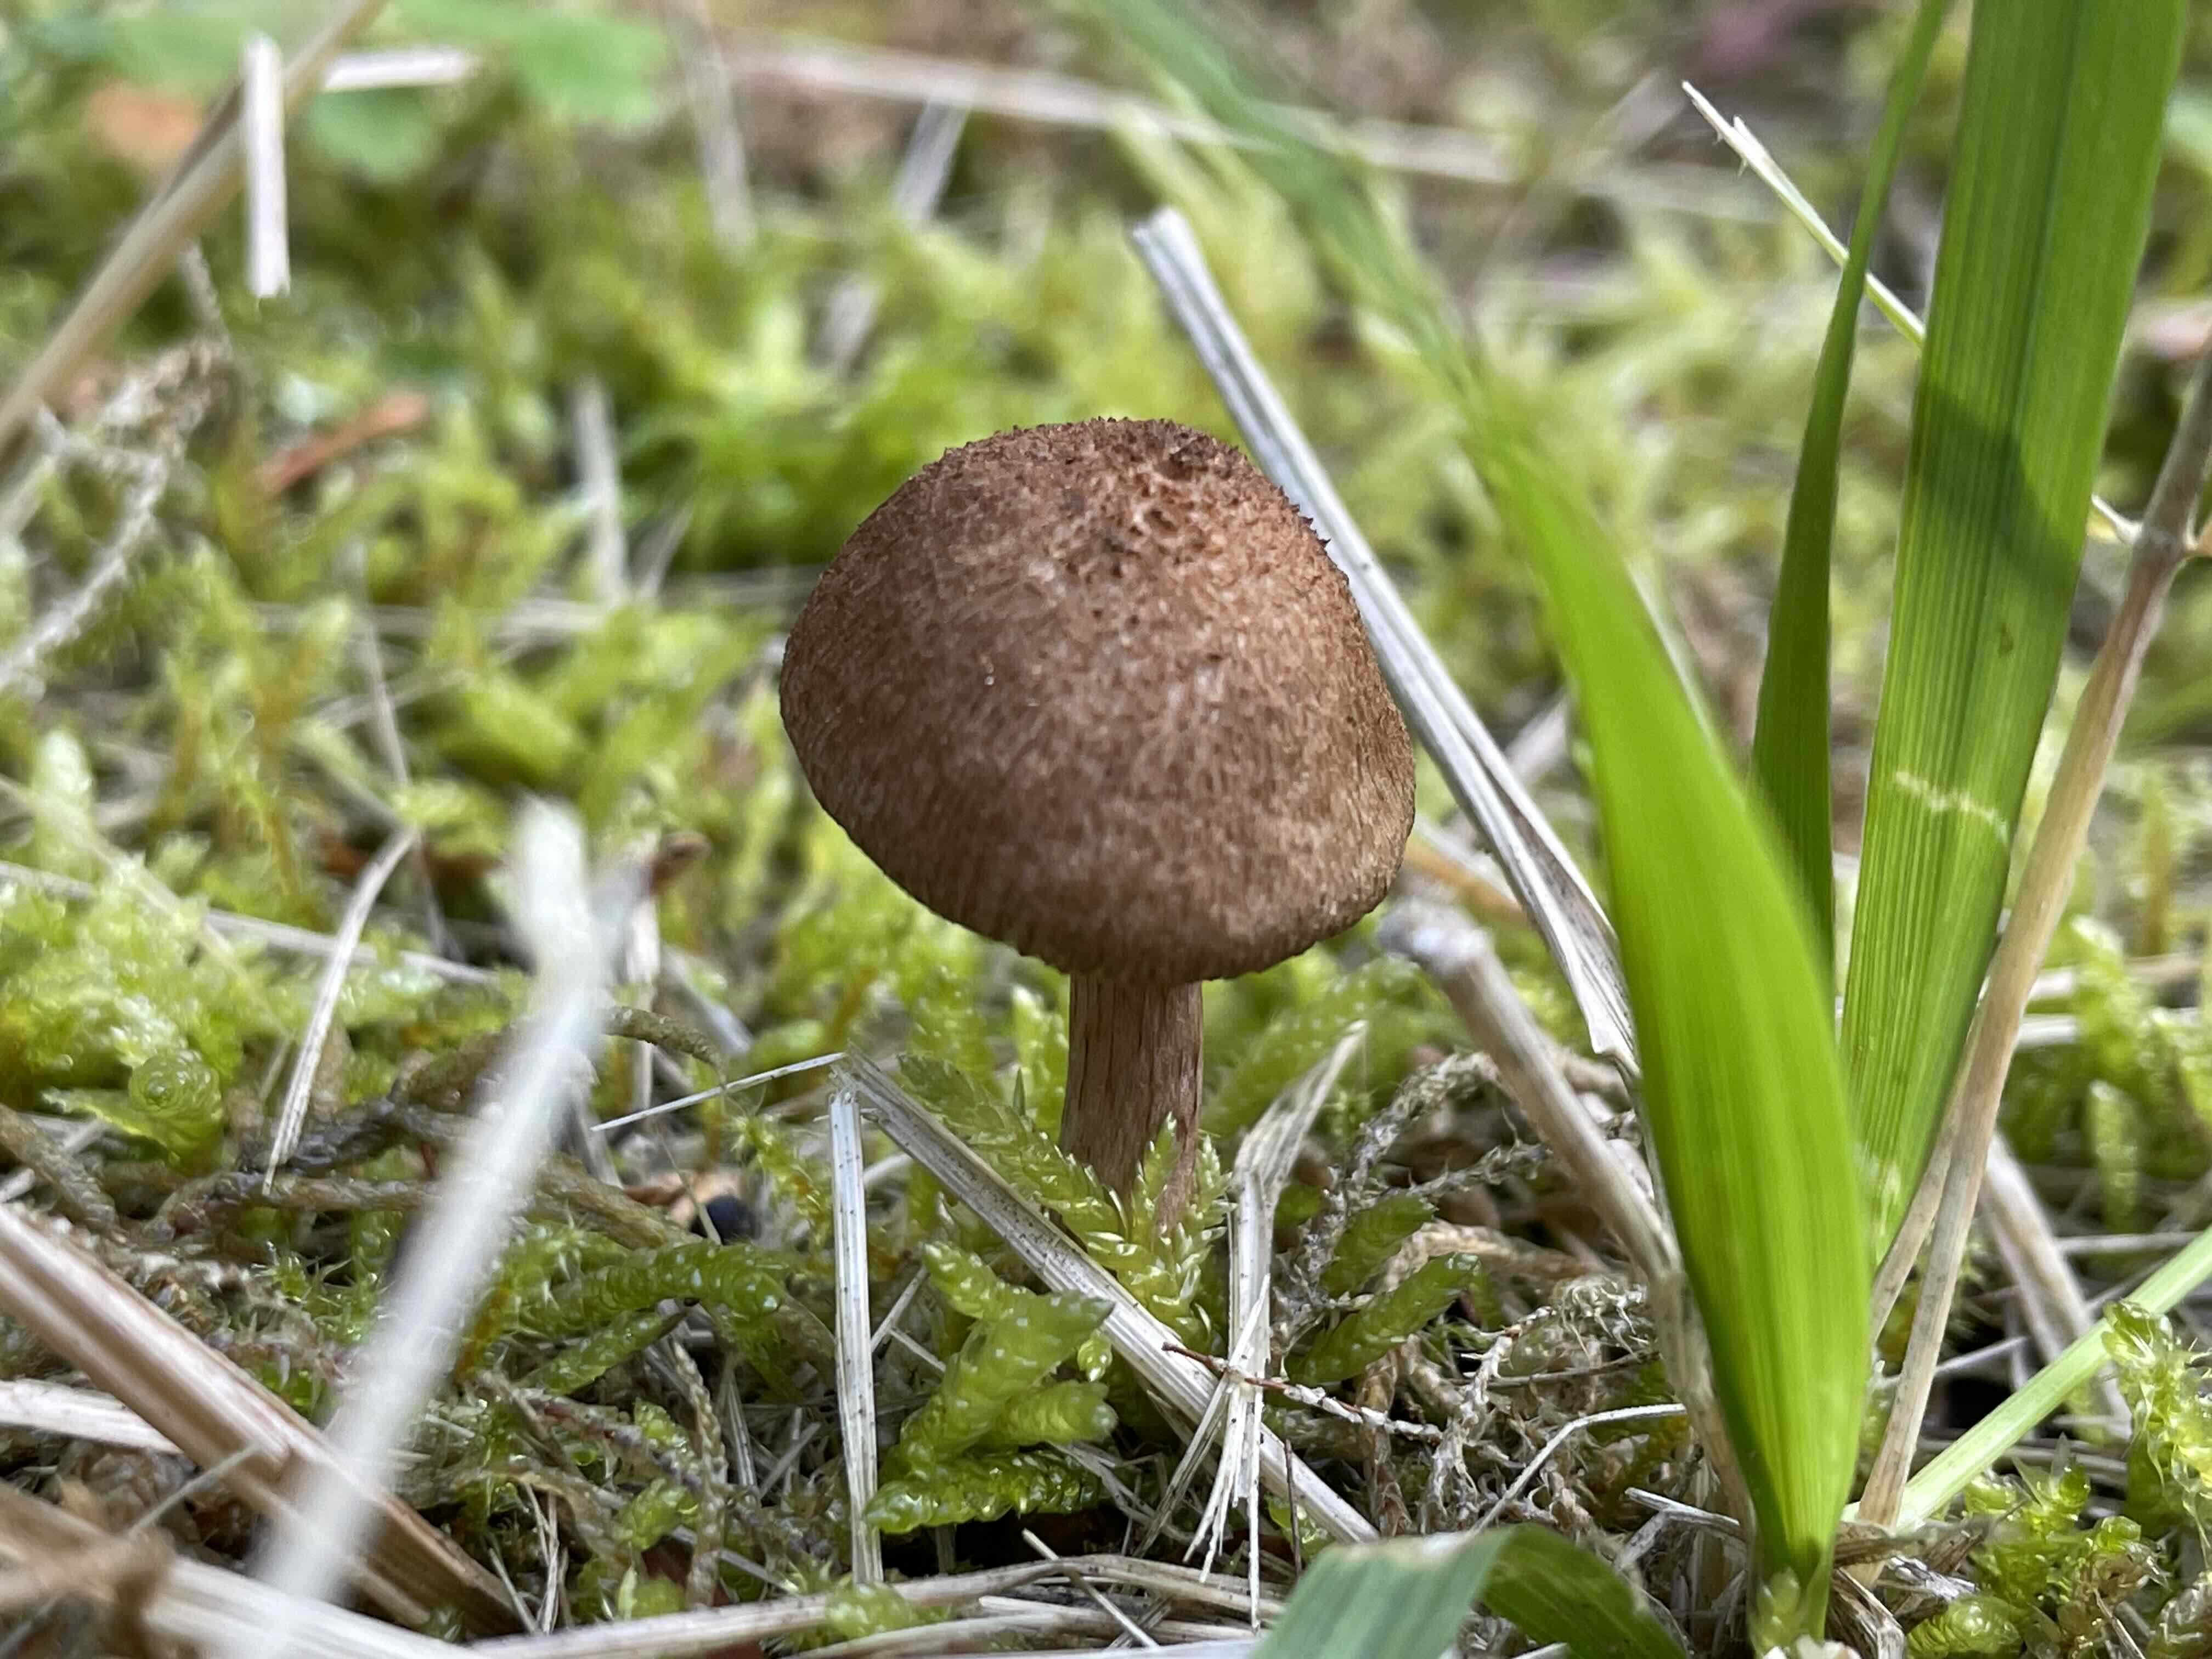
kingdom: Fungi
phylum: Basidiomycota
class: Agaricomycetes
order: Agaricales
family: Inocybaceae
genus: Inocybe
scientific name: Inocybe cincinnata
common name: lillabladet trævlhat
